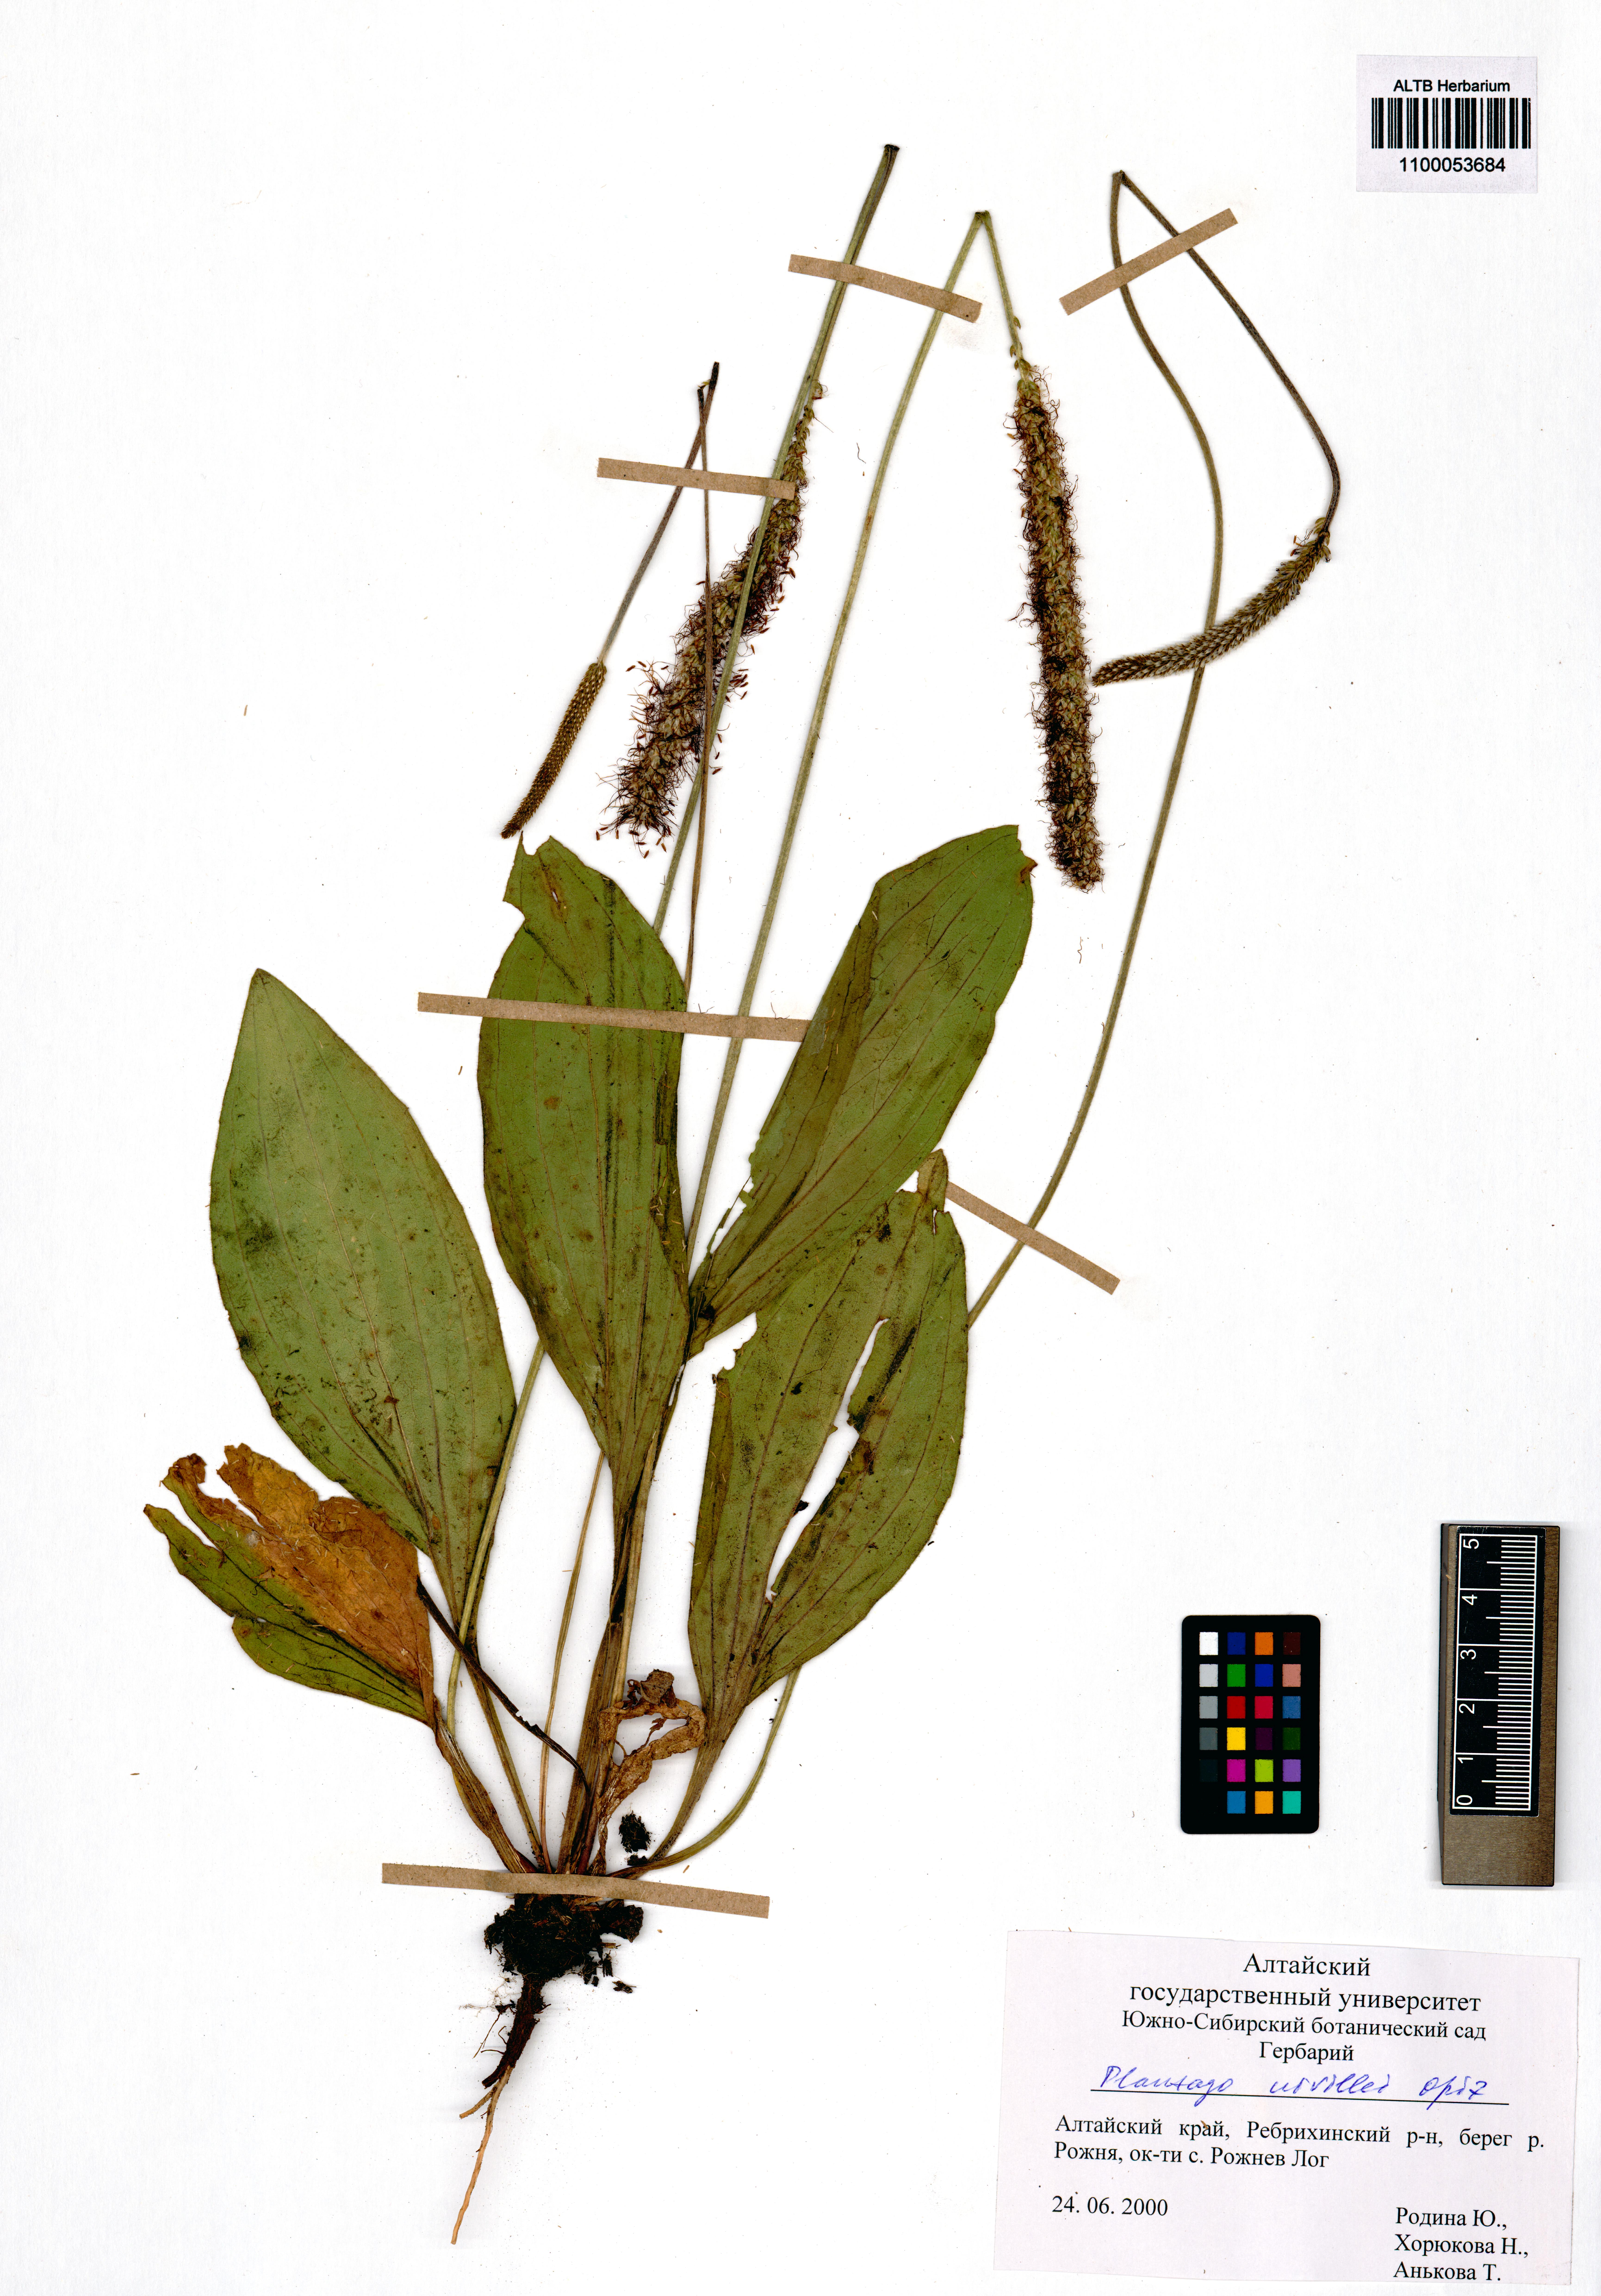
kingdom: Plantae
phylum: Tracheophyta
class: Magnoliopsida
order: Lamiales
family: Plantaginaceae
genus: Plantago
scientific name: Plantago urvillei
